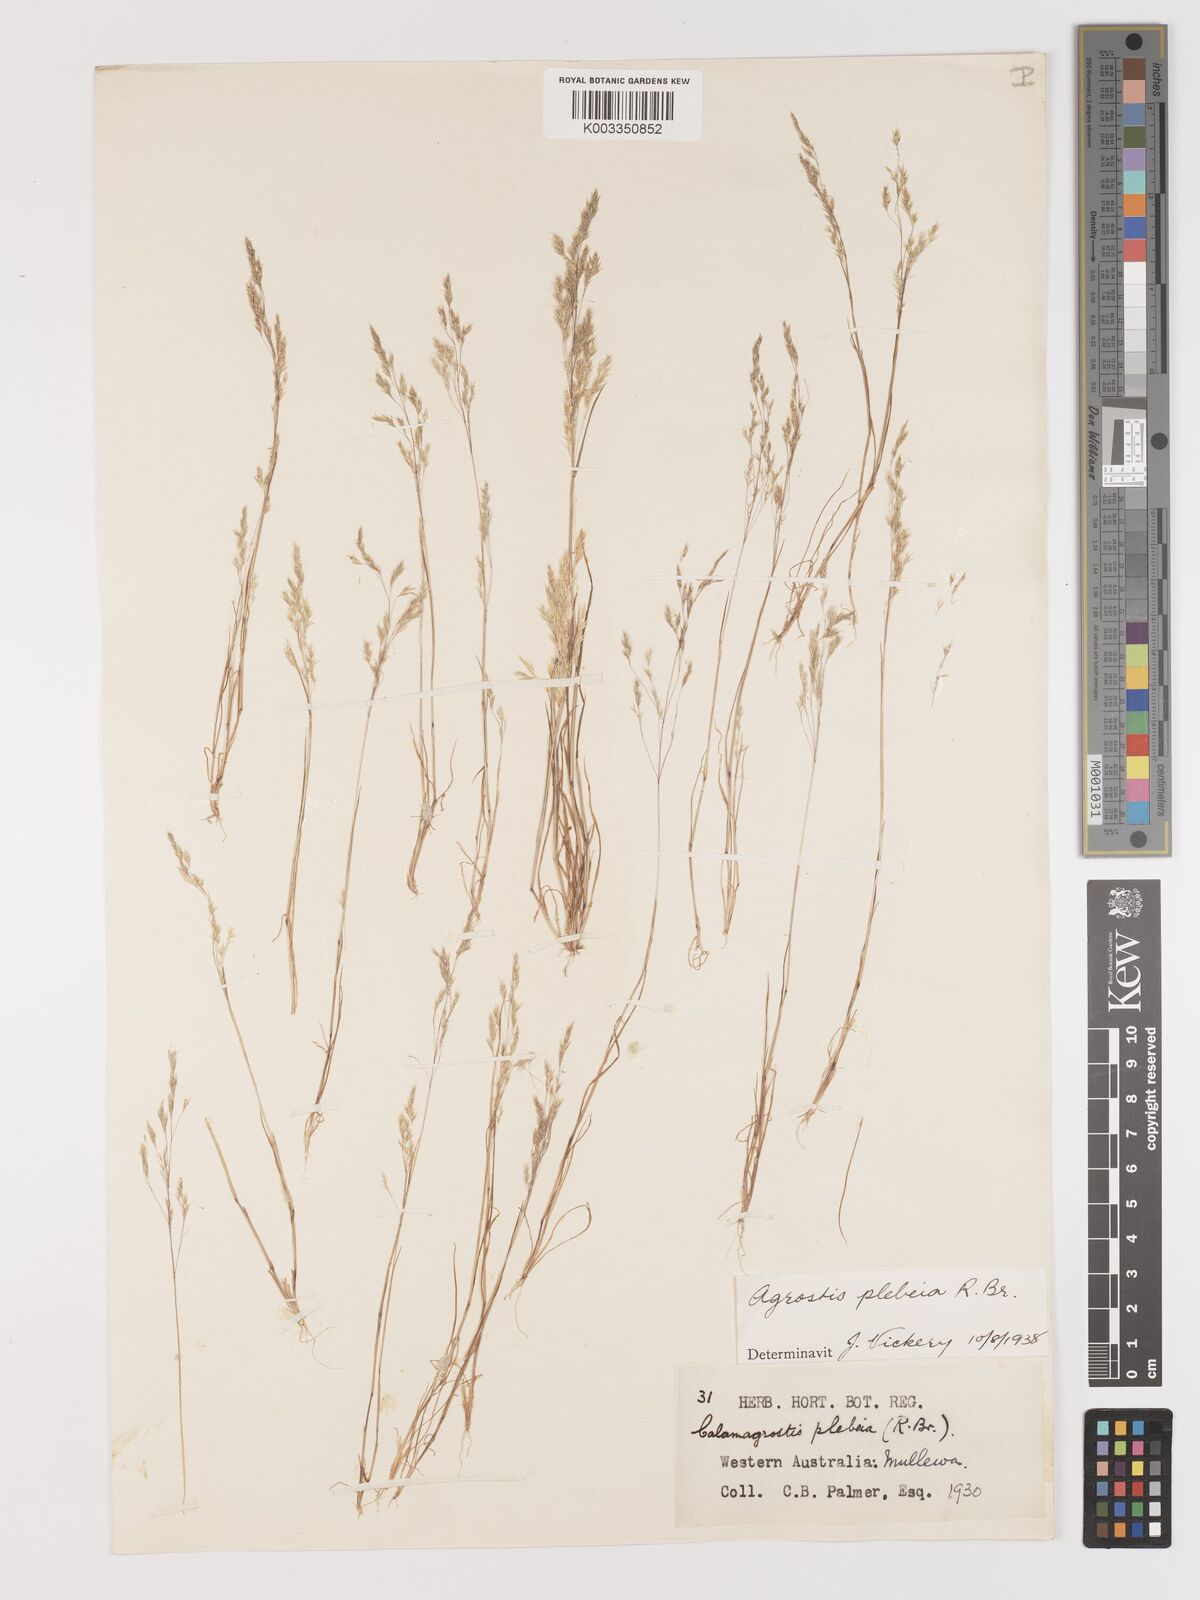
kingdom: Plantae
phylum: Tracheophyta
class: Liliopsida
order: Poales
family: Poaceae
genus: Lachnagrostis
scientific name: Lachnagrostis plebeia
